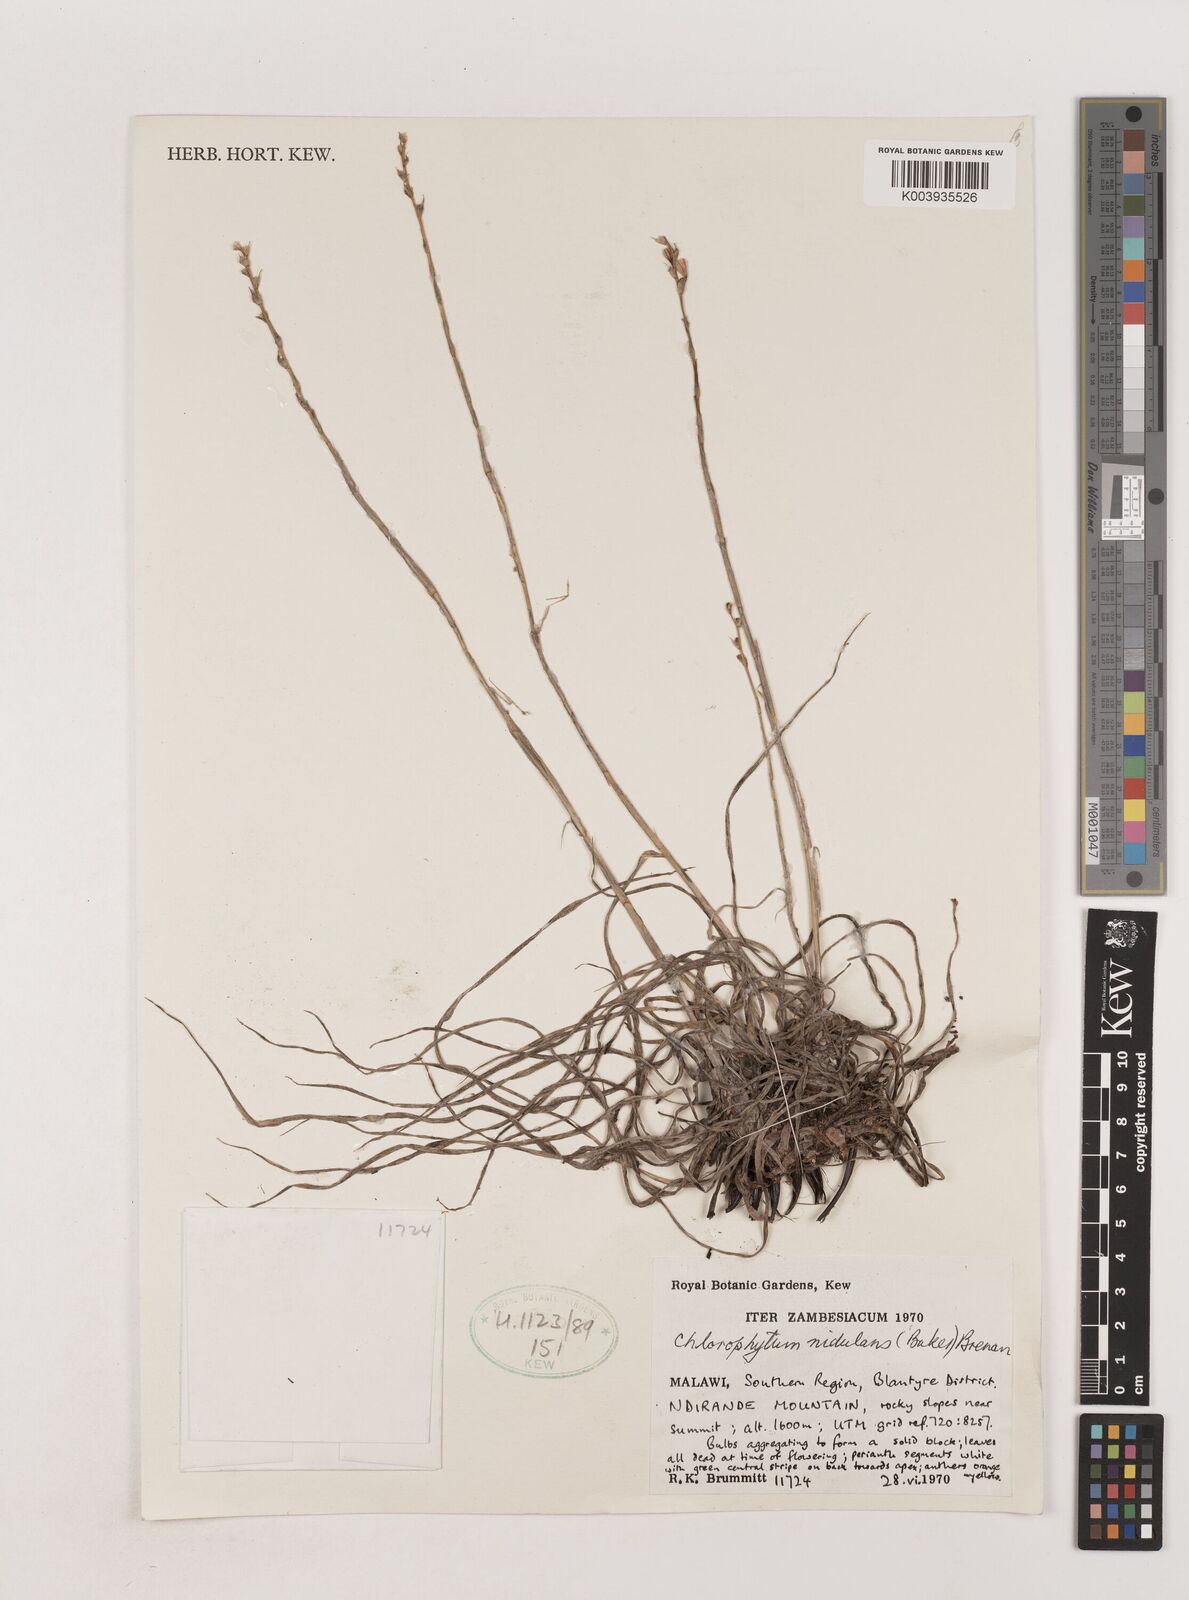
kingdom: Plantae
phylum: Tracheophyta
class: Liliopsida
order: Asparagales
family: Asparagaceae
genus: Chlorophytum
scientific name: Chlorophytum nidulans
